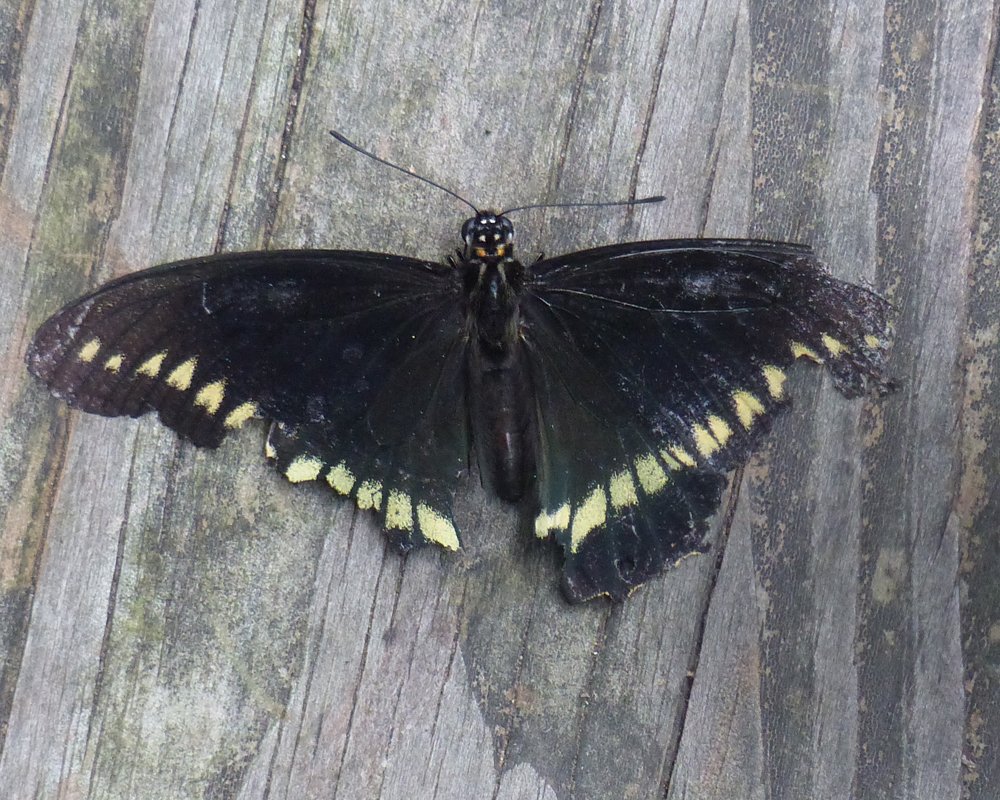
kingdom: Animalia
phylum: Arthropoda
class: Insecta
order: Lepidoptera
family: Papilionidae
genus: Battus
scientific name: Battus polydamas
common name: Polydamas Swallowtail
